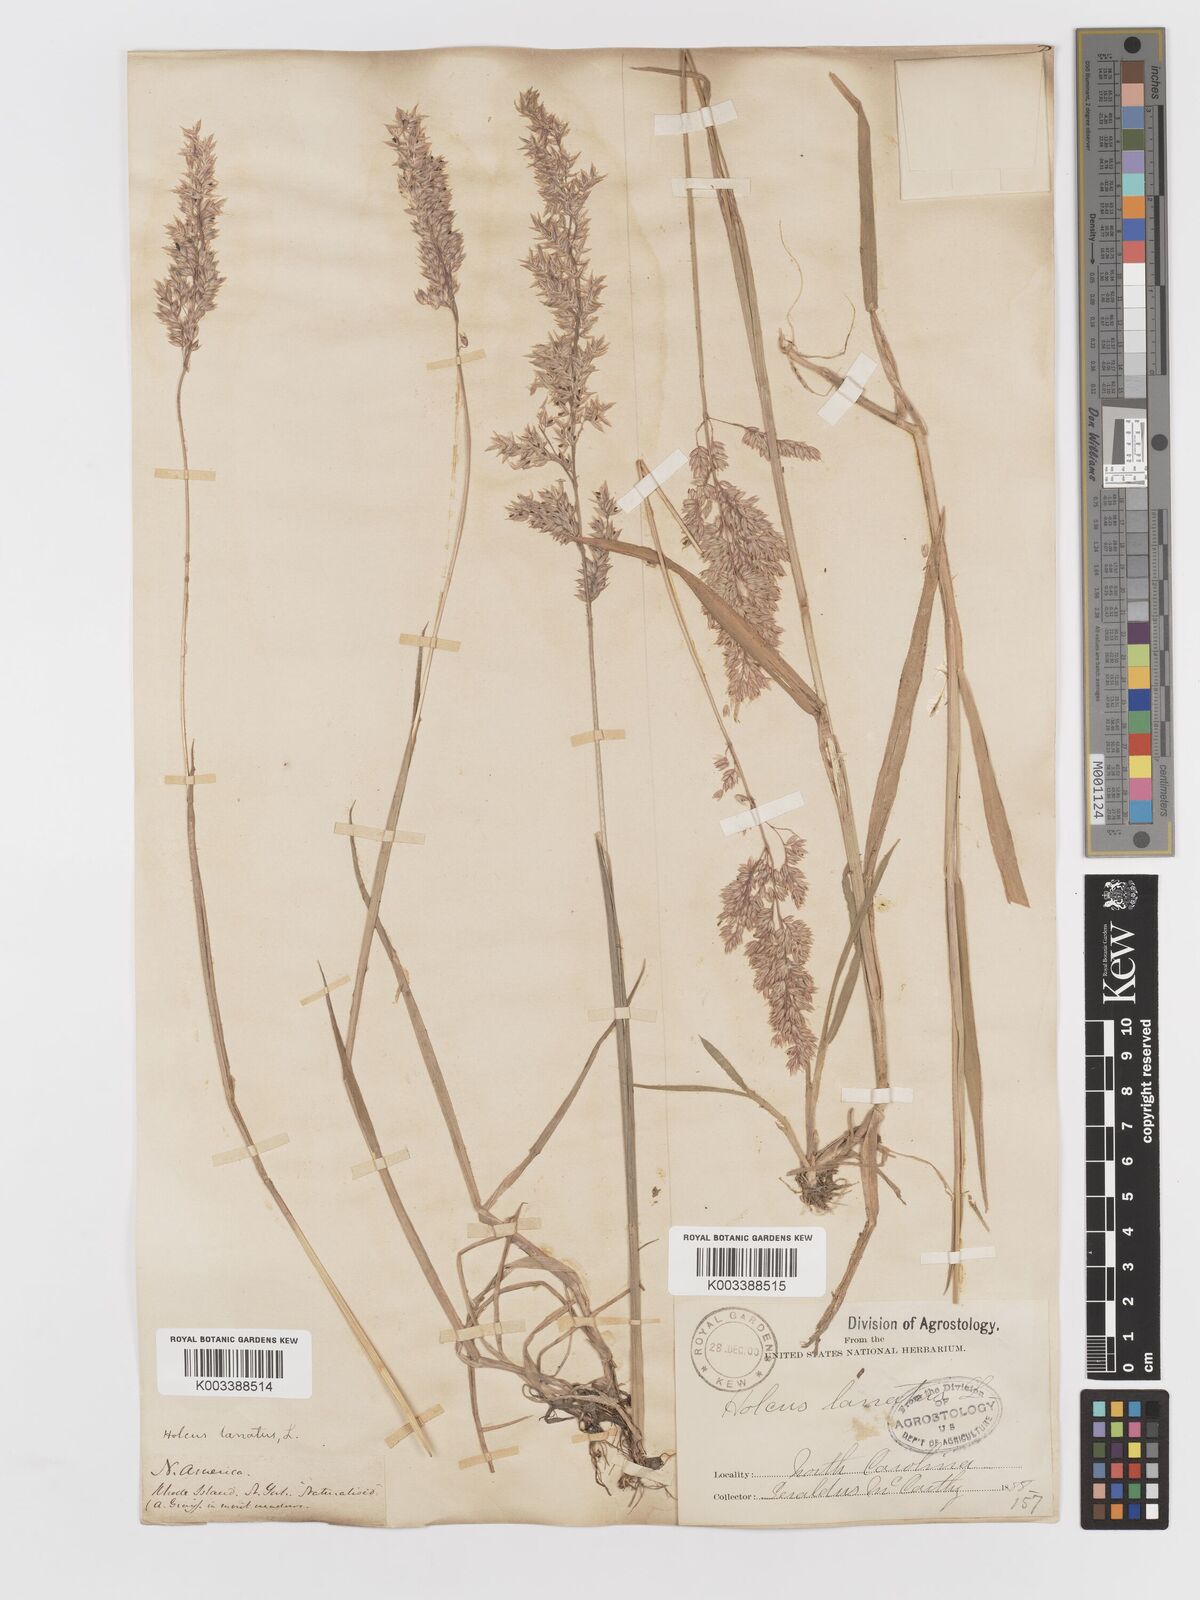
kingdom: Plantae
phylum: Tracheophyta
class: Liliopsida
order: Poales
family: Poaceae
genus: Holcus
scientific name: Holcus lanatus
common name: Yorkshire-fog
